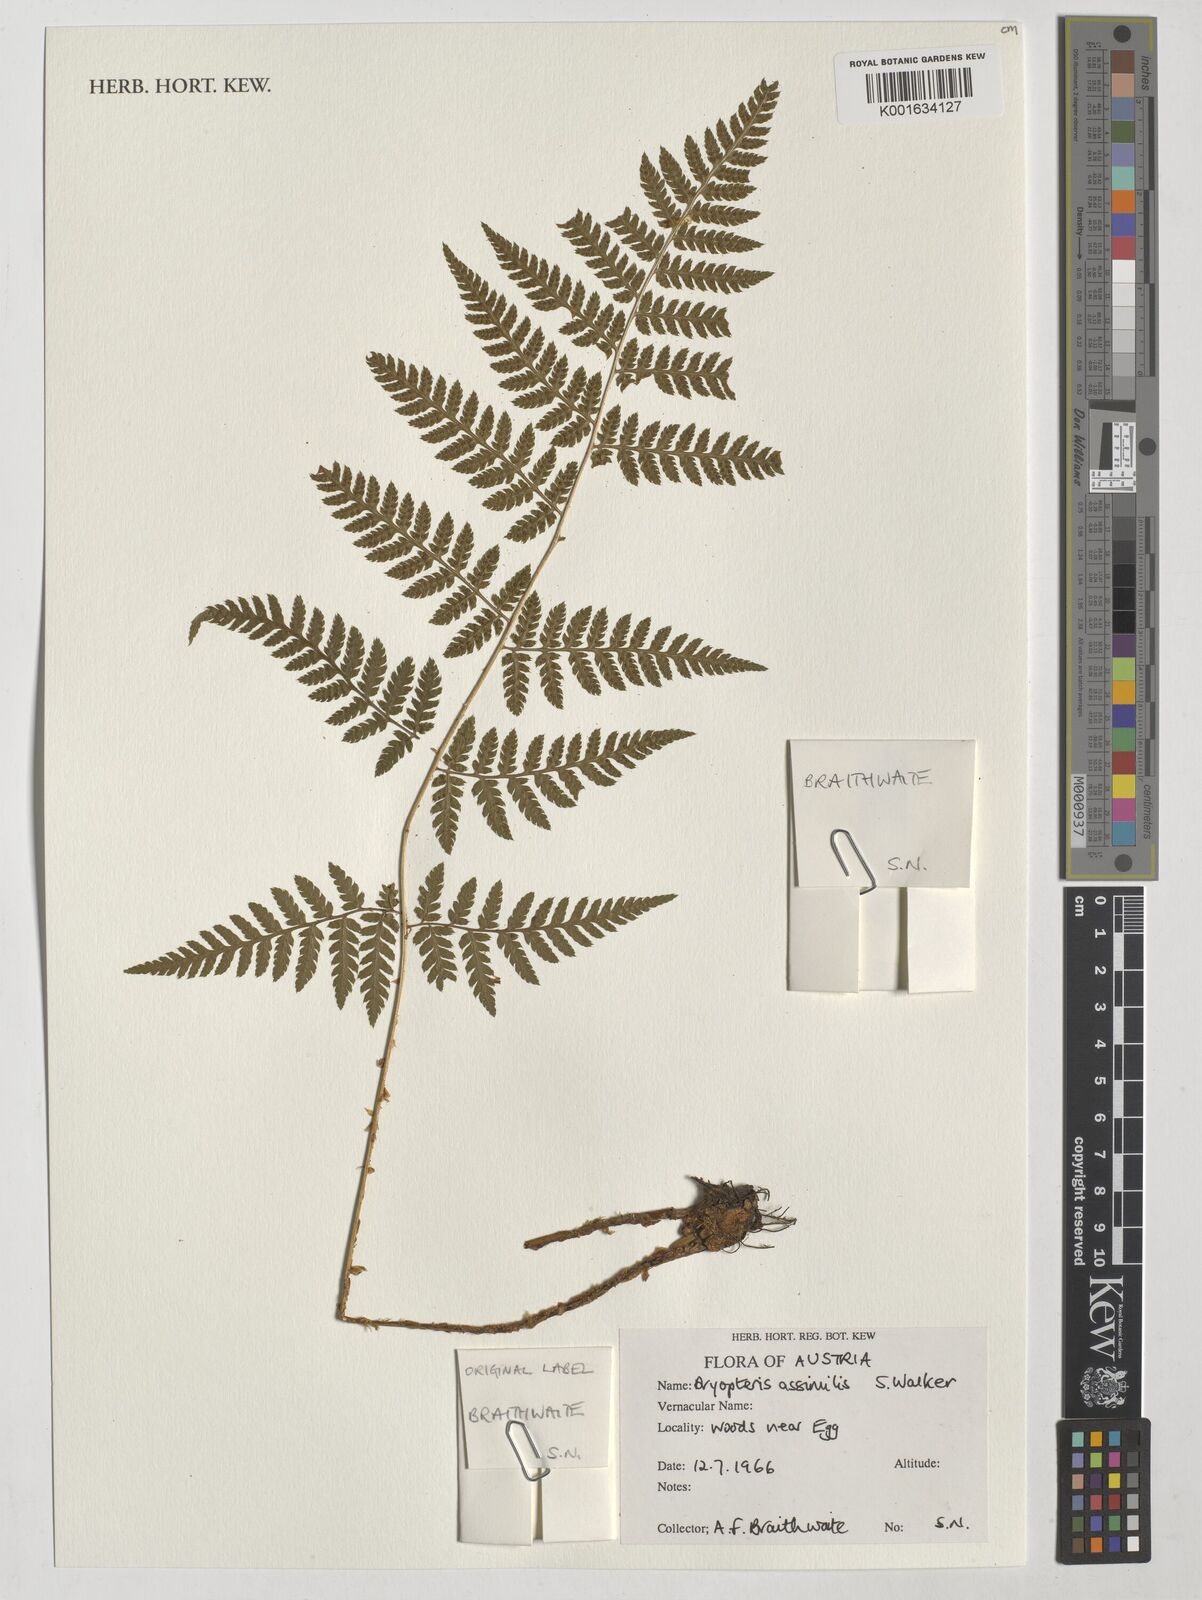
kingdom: Plantae
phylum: Tracheophyta
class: Polypodiopsida
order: Polypodiales
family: Dryopteridaceae
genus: Dryopteris
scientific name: Dryopteris expansa
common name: Northern buckler fern
